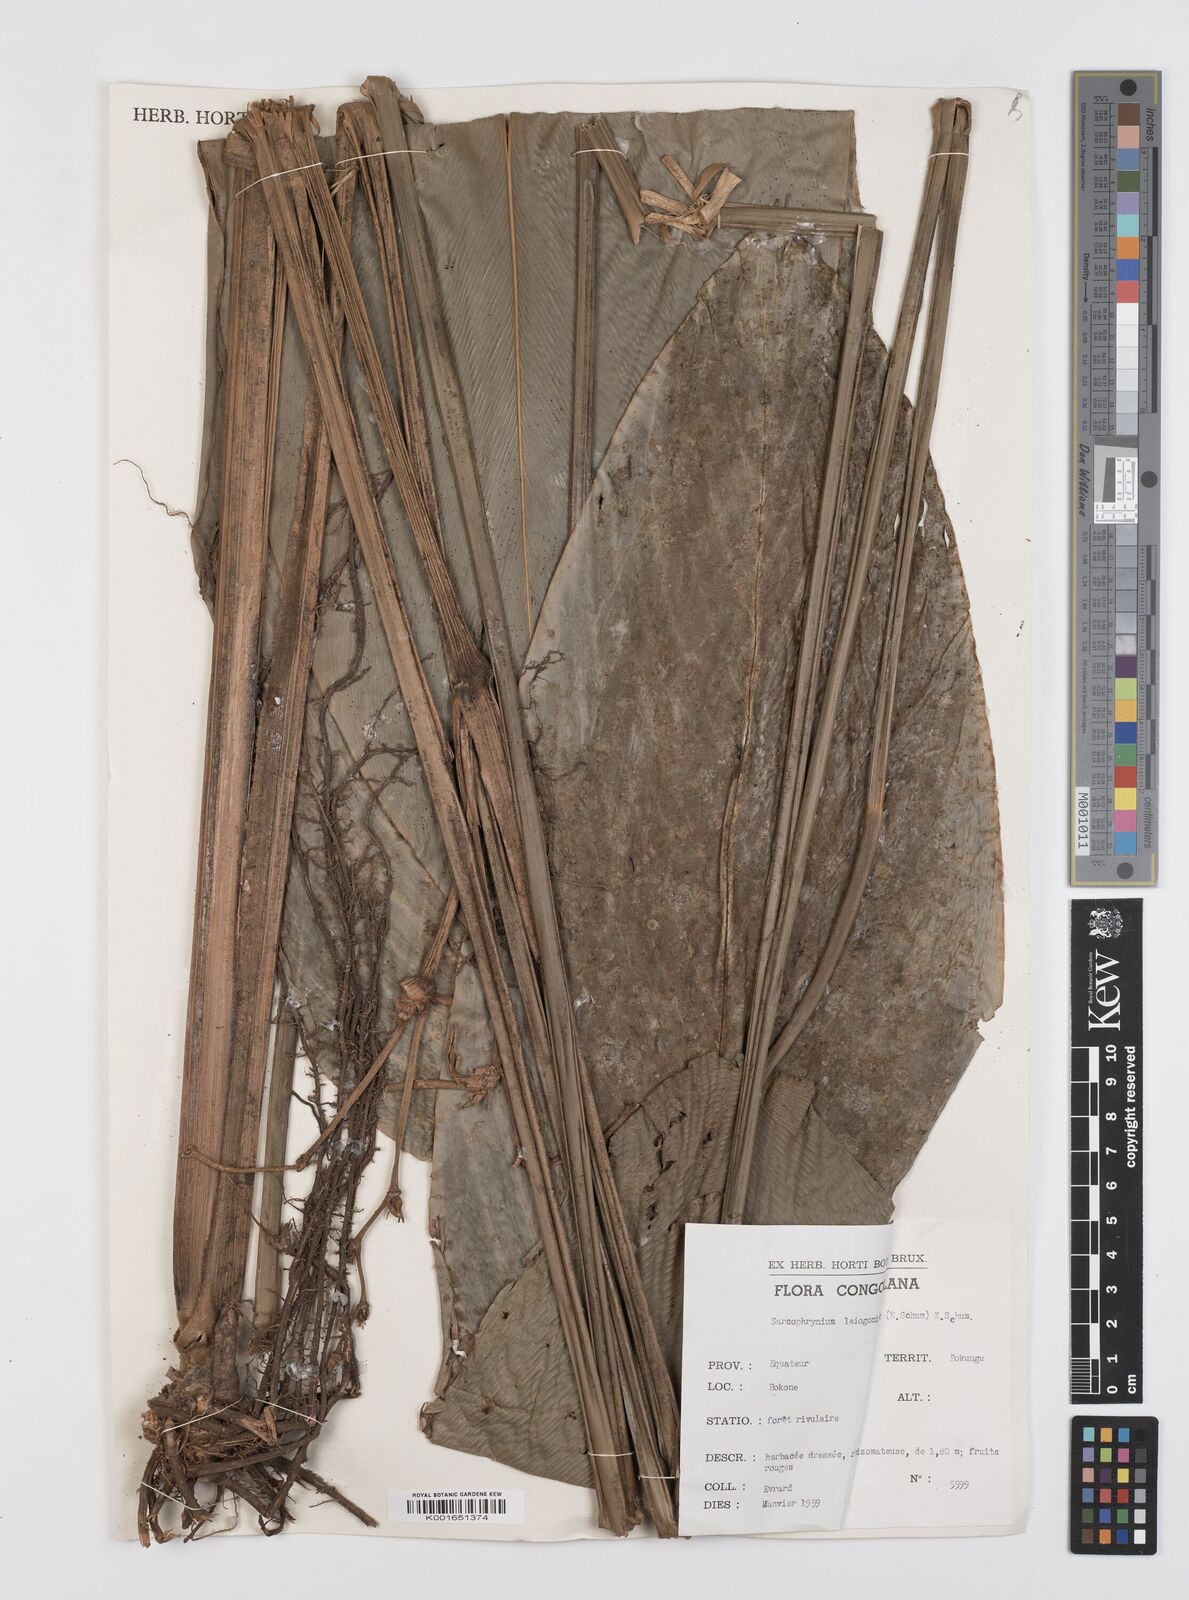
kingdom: Plantae
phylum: Tracheophyta
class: Liliopsida
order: Zingiberales
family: Marantaceae
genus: Sarcophrynium
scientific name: Sarcophrynium prionogonium
